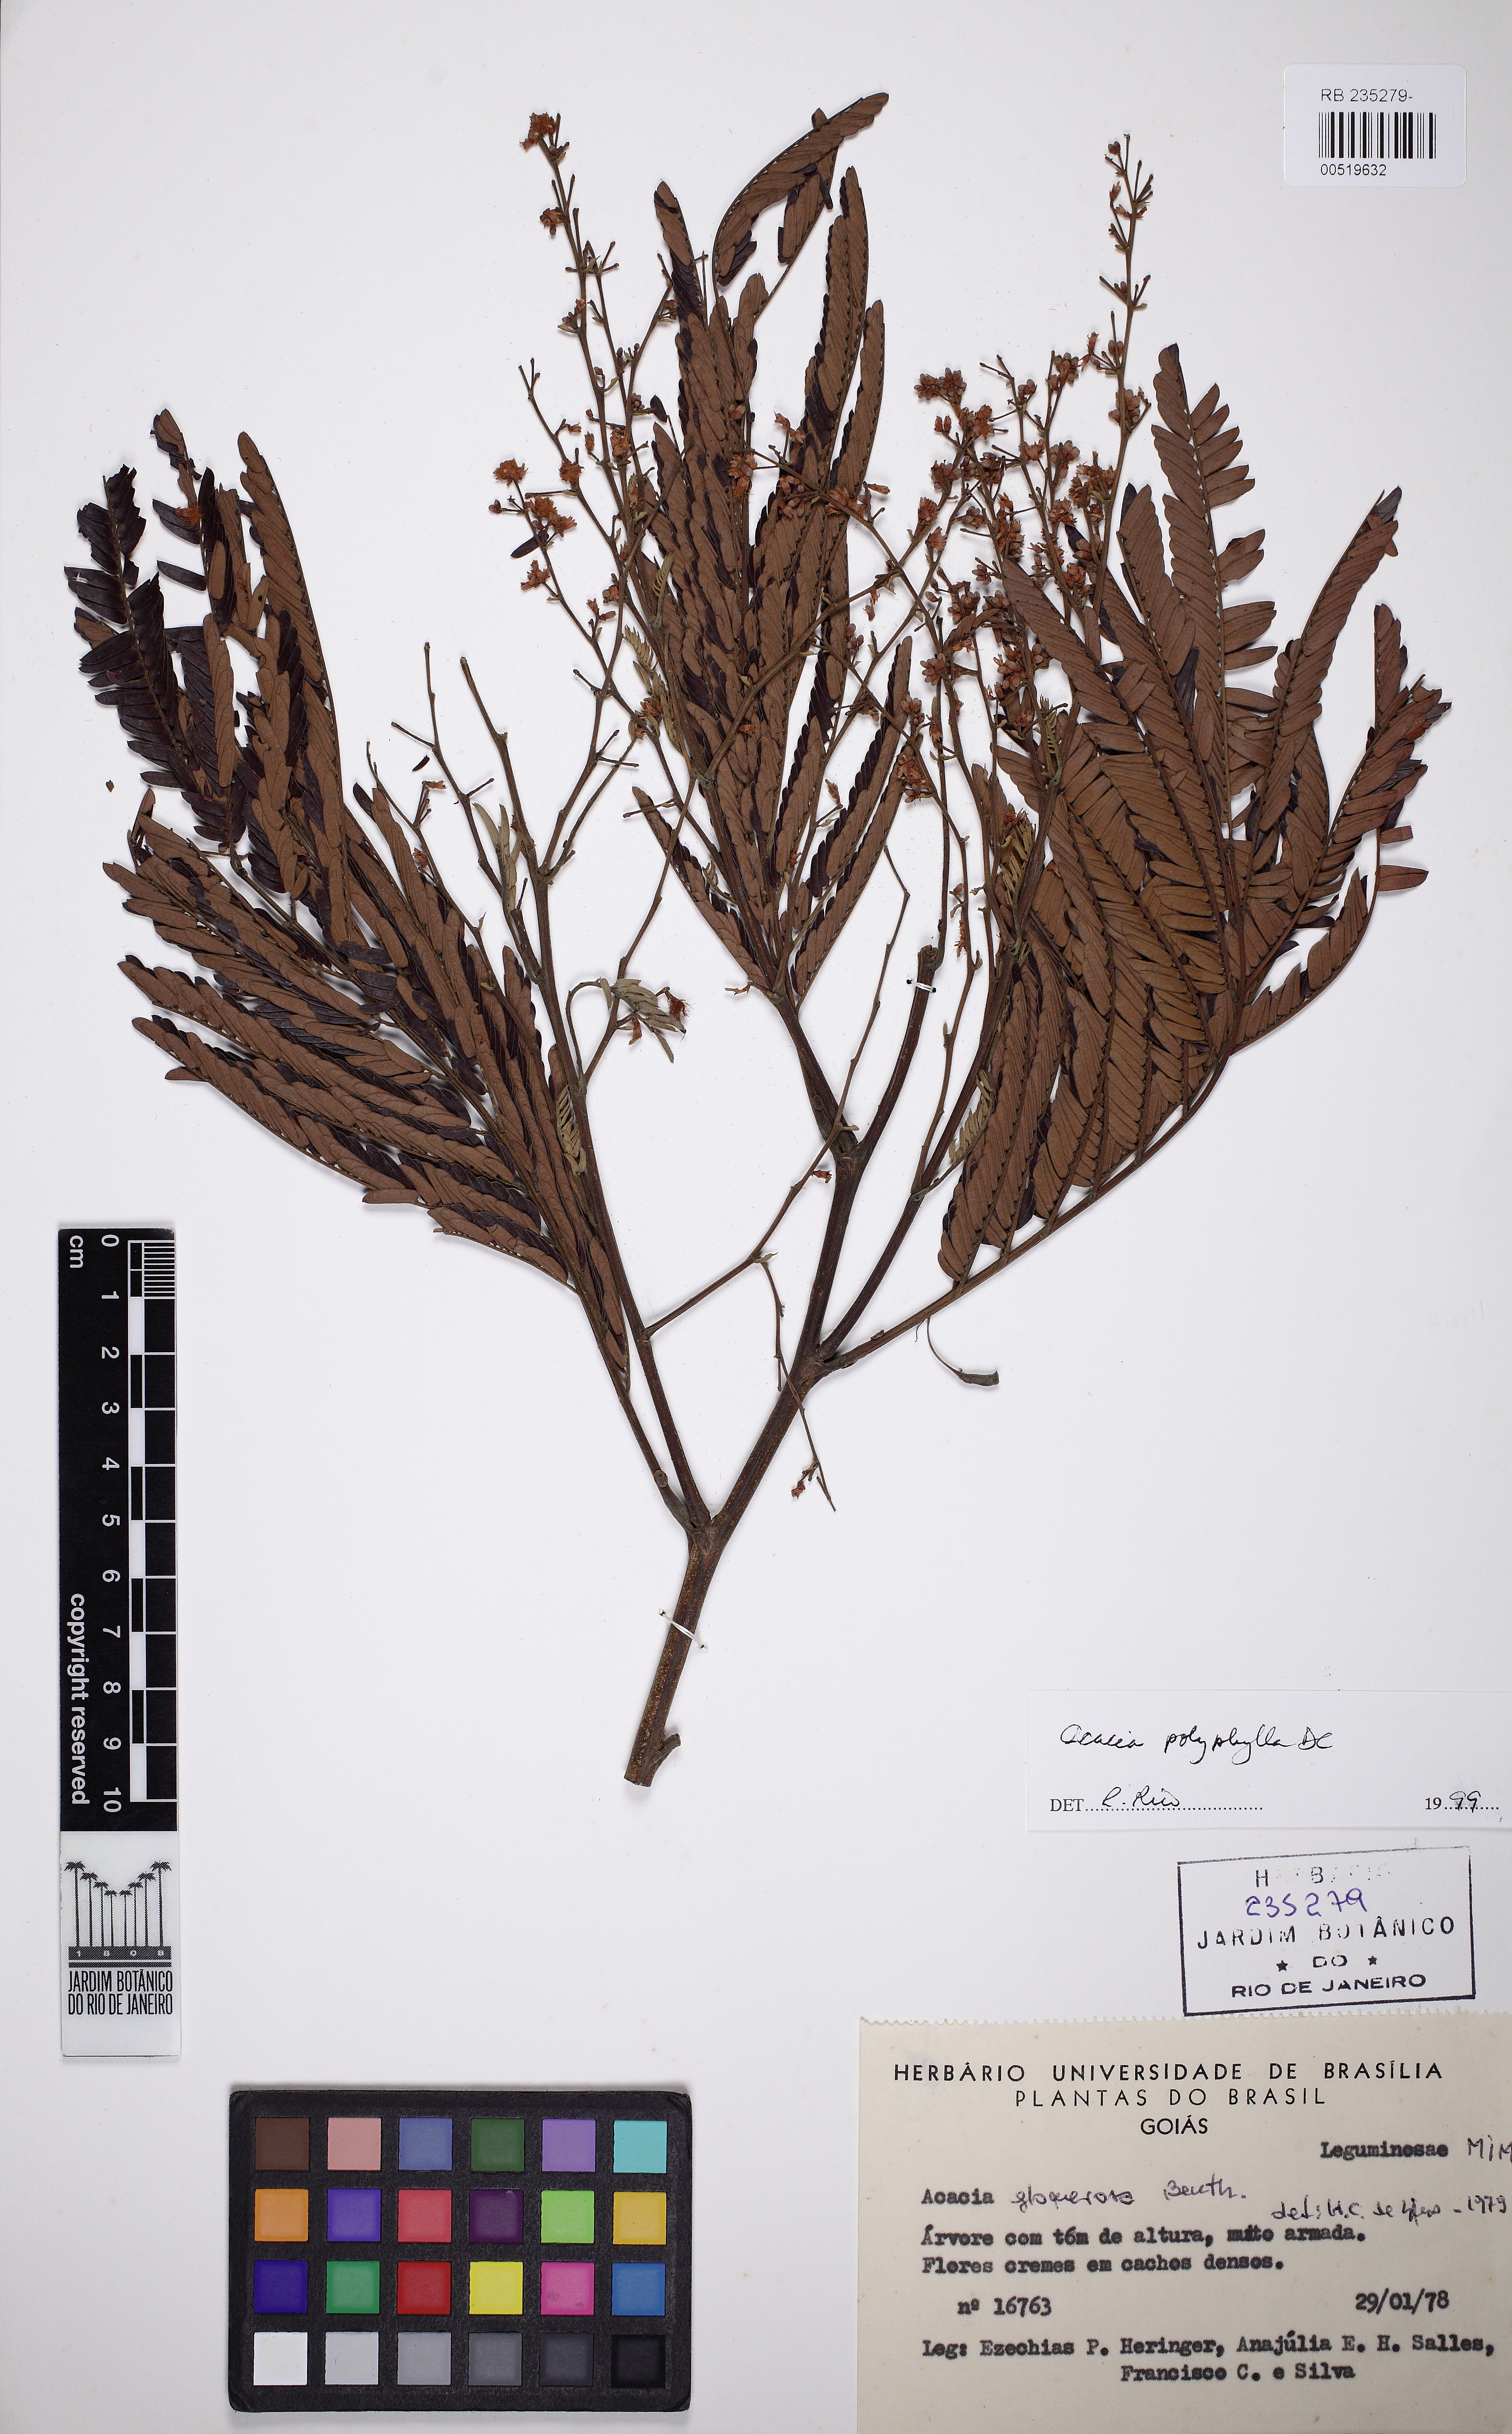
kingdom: Plantae
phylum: Tracheophyta
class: Magnoliopsida
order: Fabales
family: Fabaceae
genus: Senegalia
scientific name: Senegalia polyphylla
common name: White-tamarind
